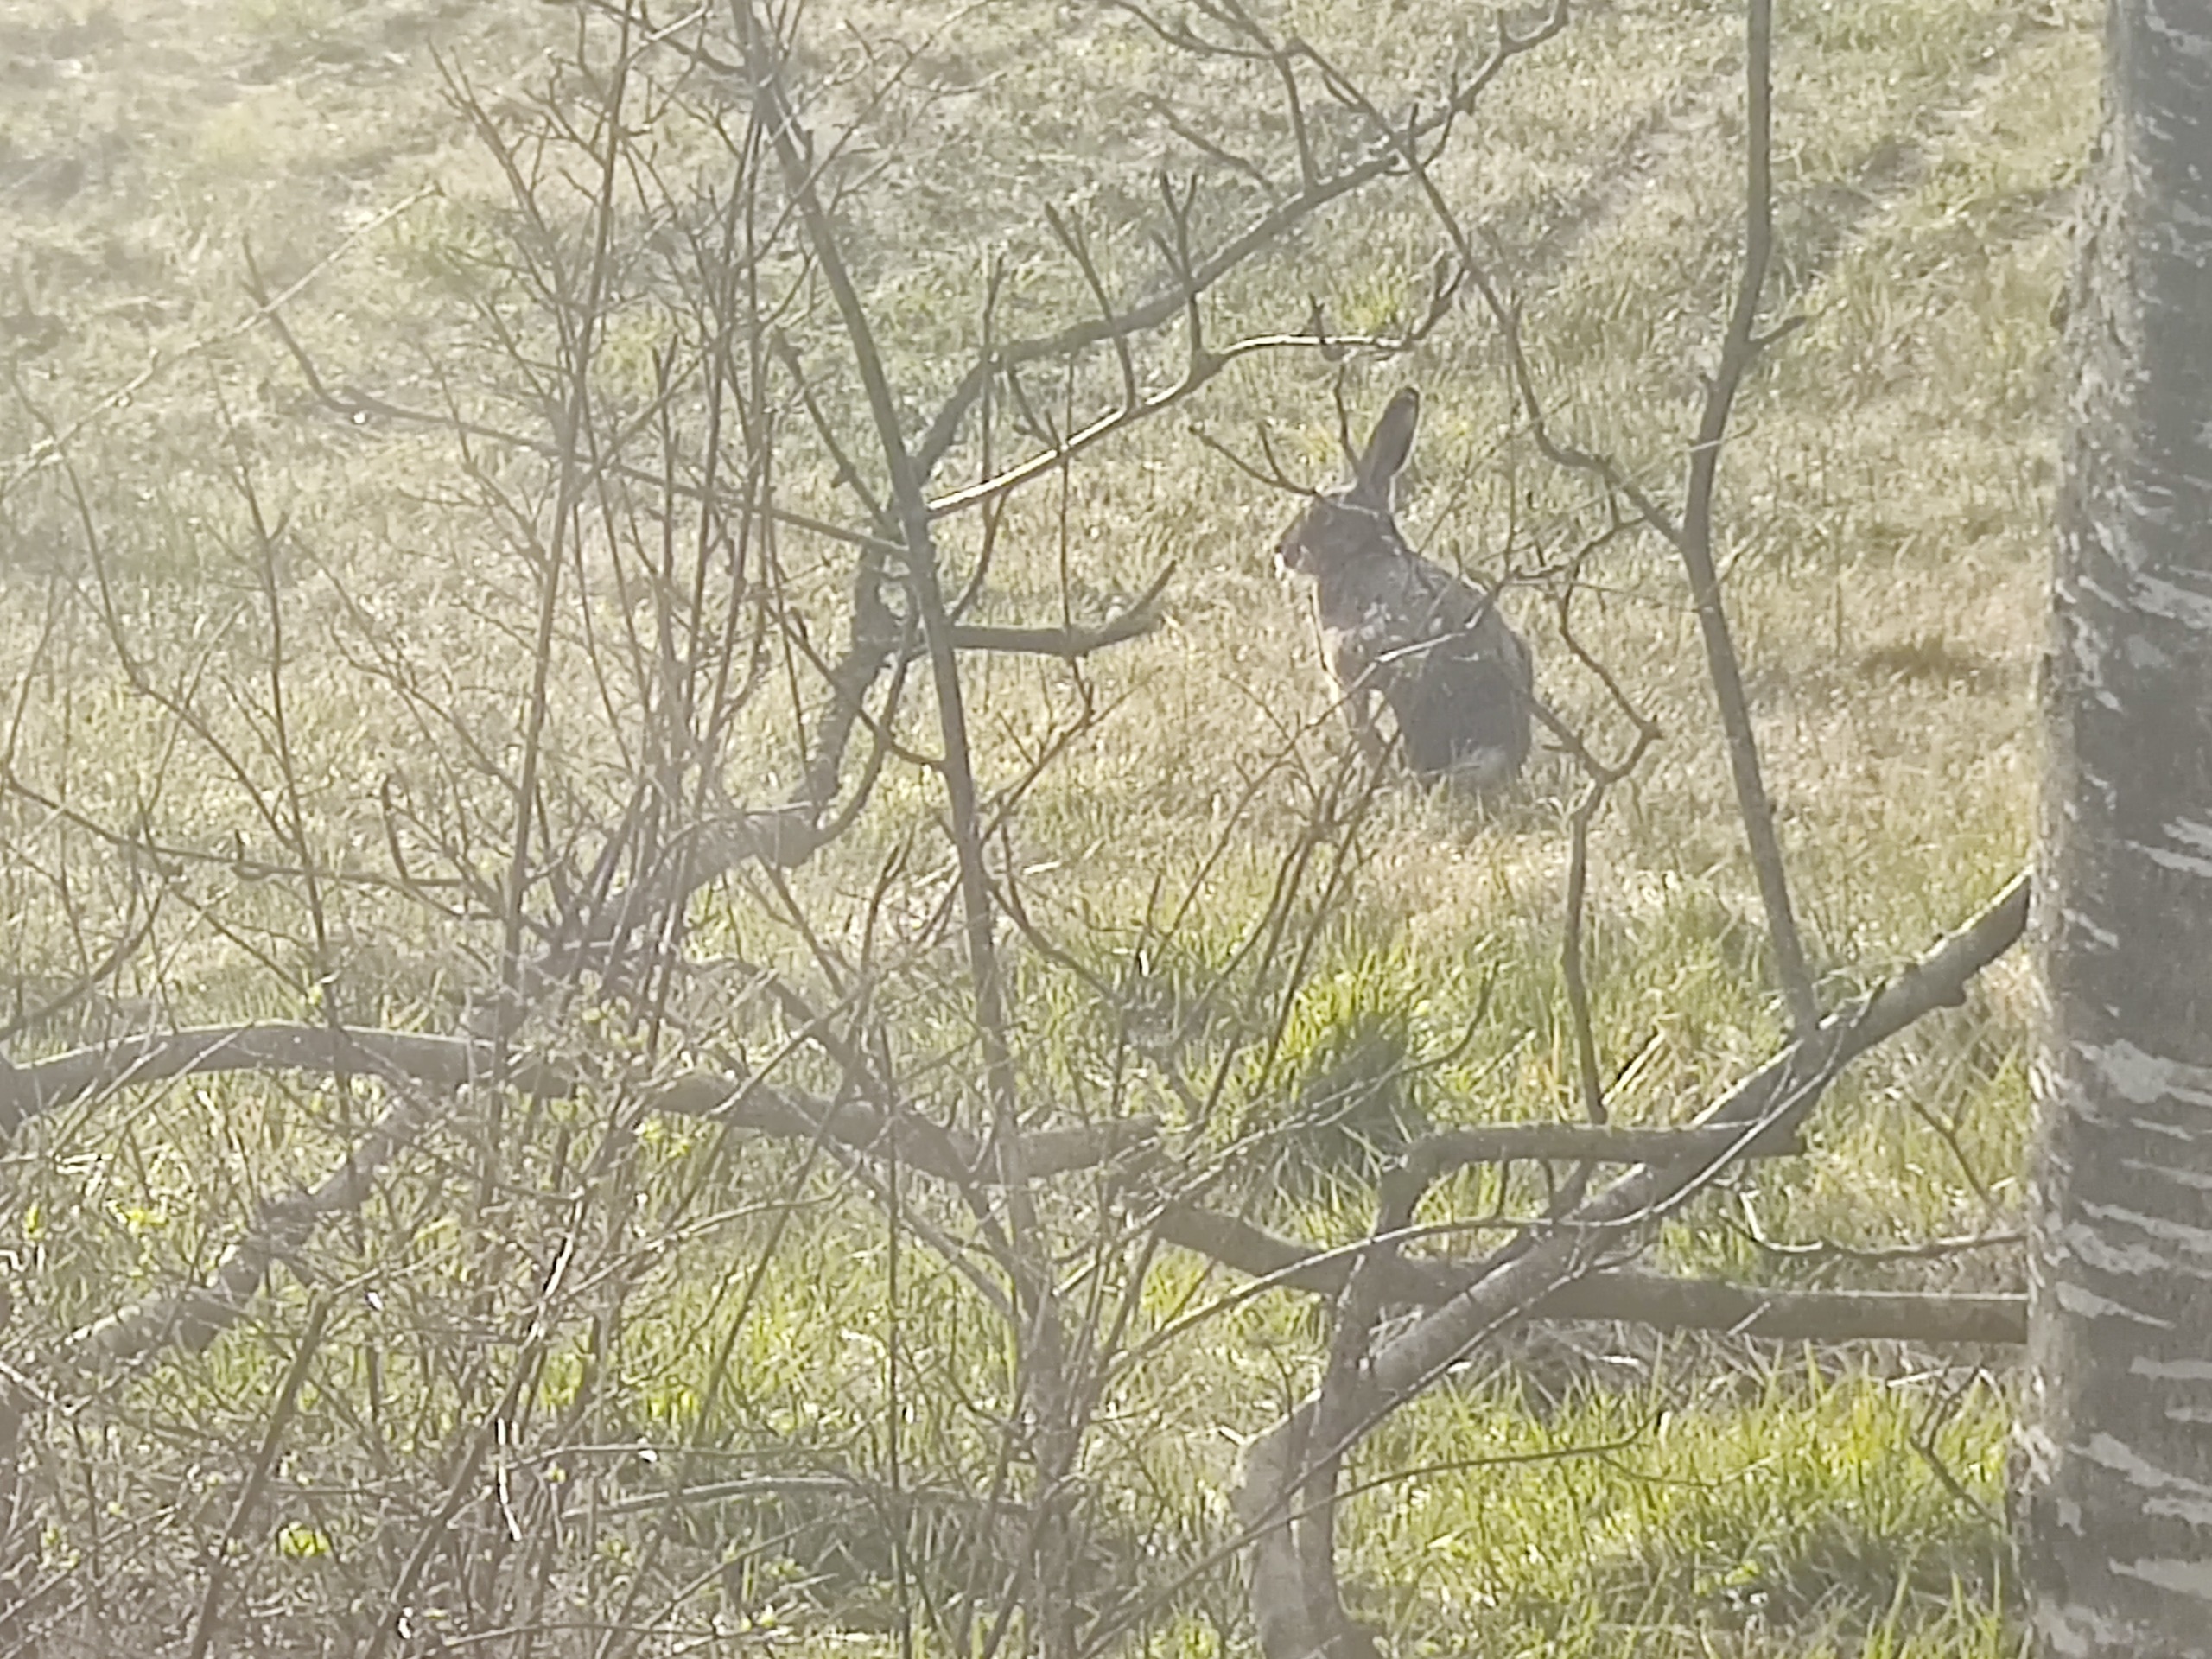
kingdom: Animalia
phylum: Chordata
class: Mammalia
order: Lagomorpha
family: Leporidae
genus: Lepus
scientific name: Lepus europaeus
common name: Hare
